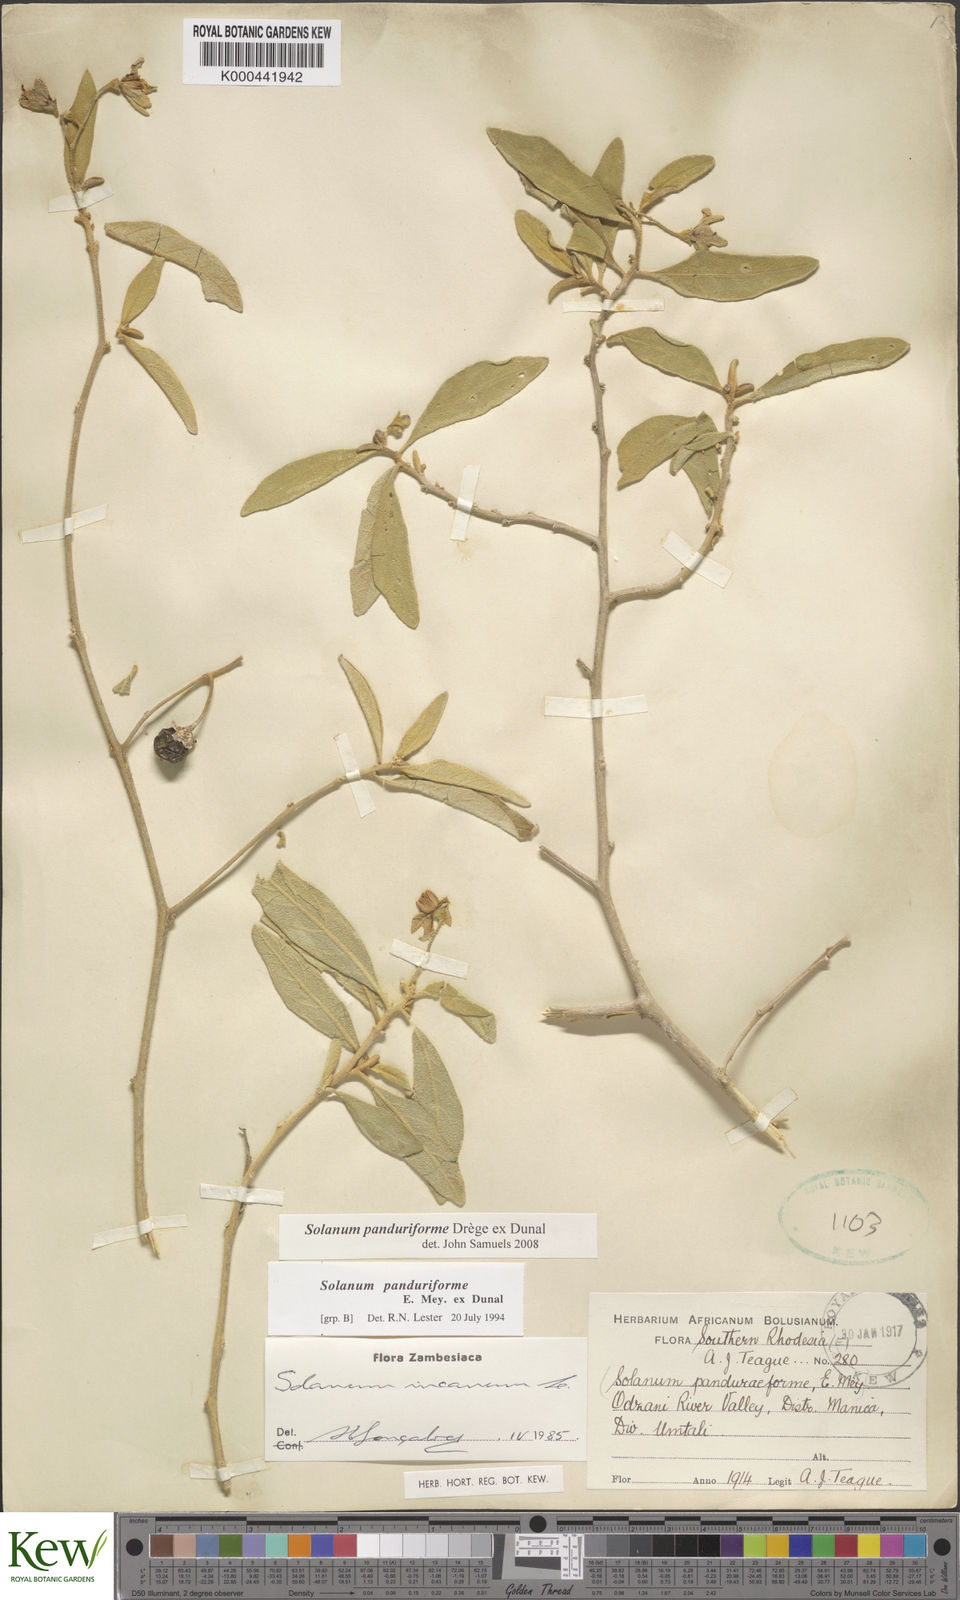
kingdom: Plantae
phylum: Tracheophyta
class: Magnoliopsida
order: Solanales
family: Solanaceae
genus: Solanum
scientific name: Solanum campylacanthum
